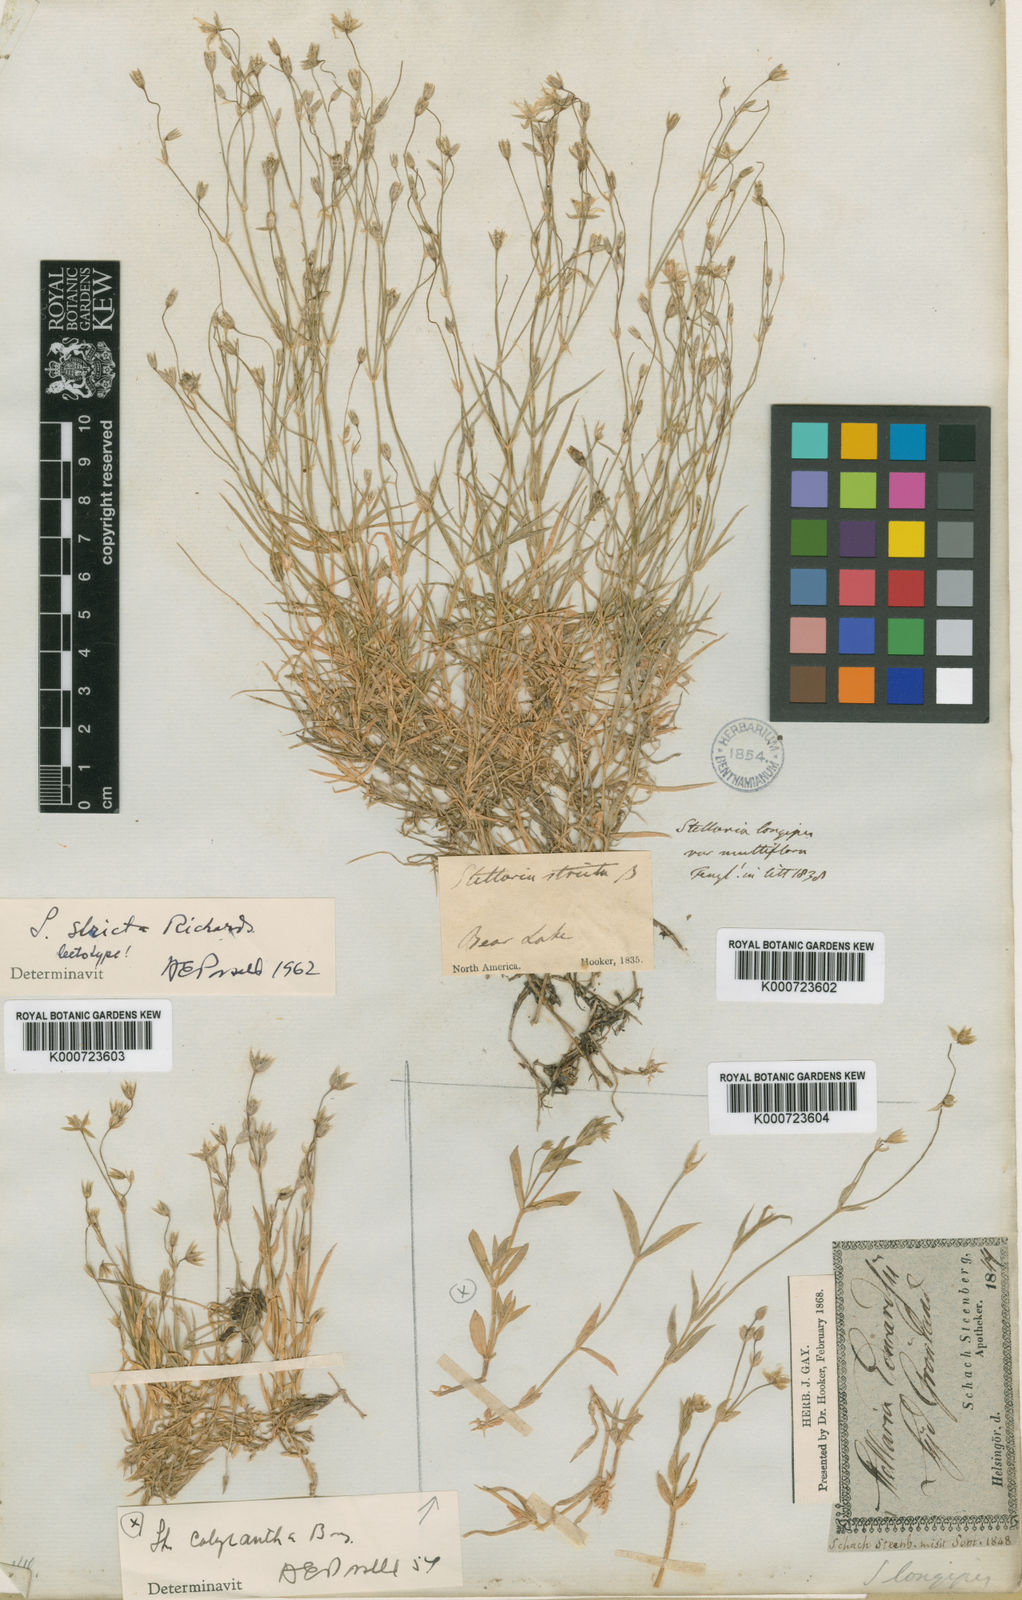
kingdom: Plantae
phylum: Tracheophyta
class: Magnoliopsida
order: Caryophyllales
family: Caryophyllaceae
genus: Stellaria
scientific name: Stellaria longipes
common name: Goldie's starwort
